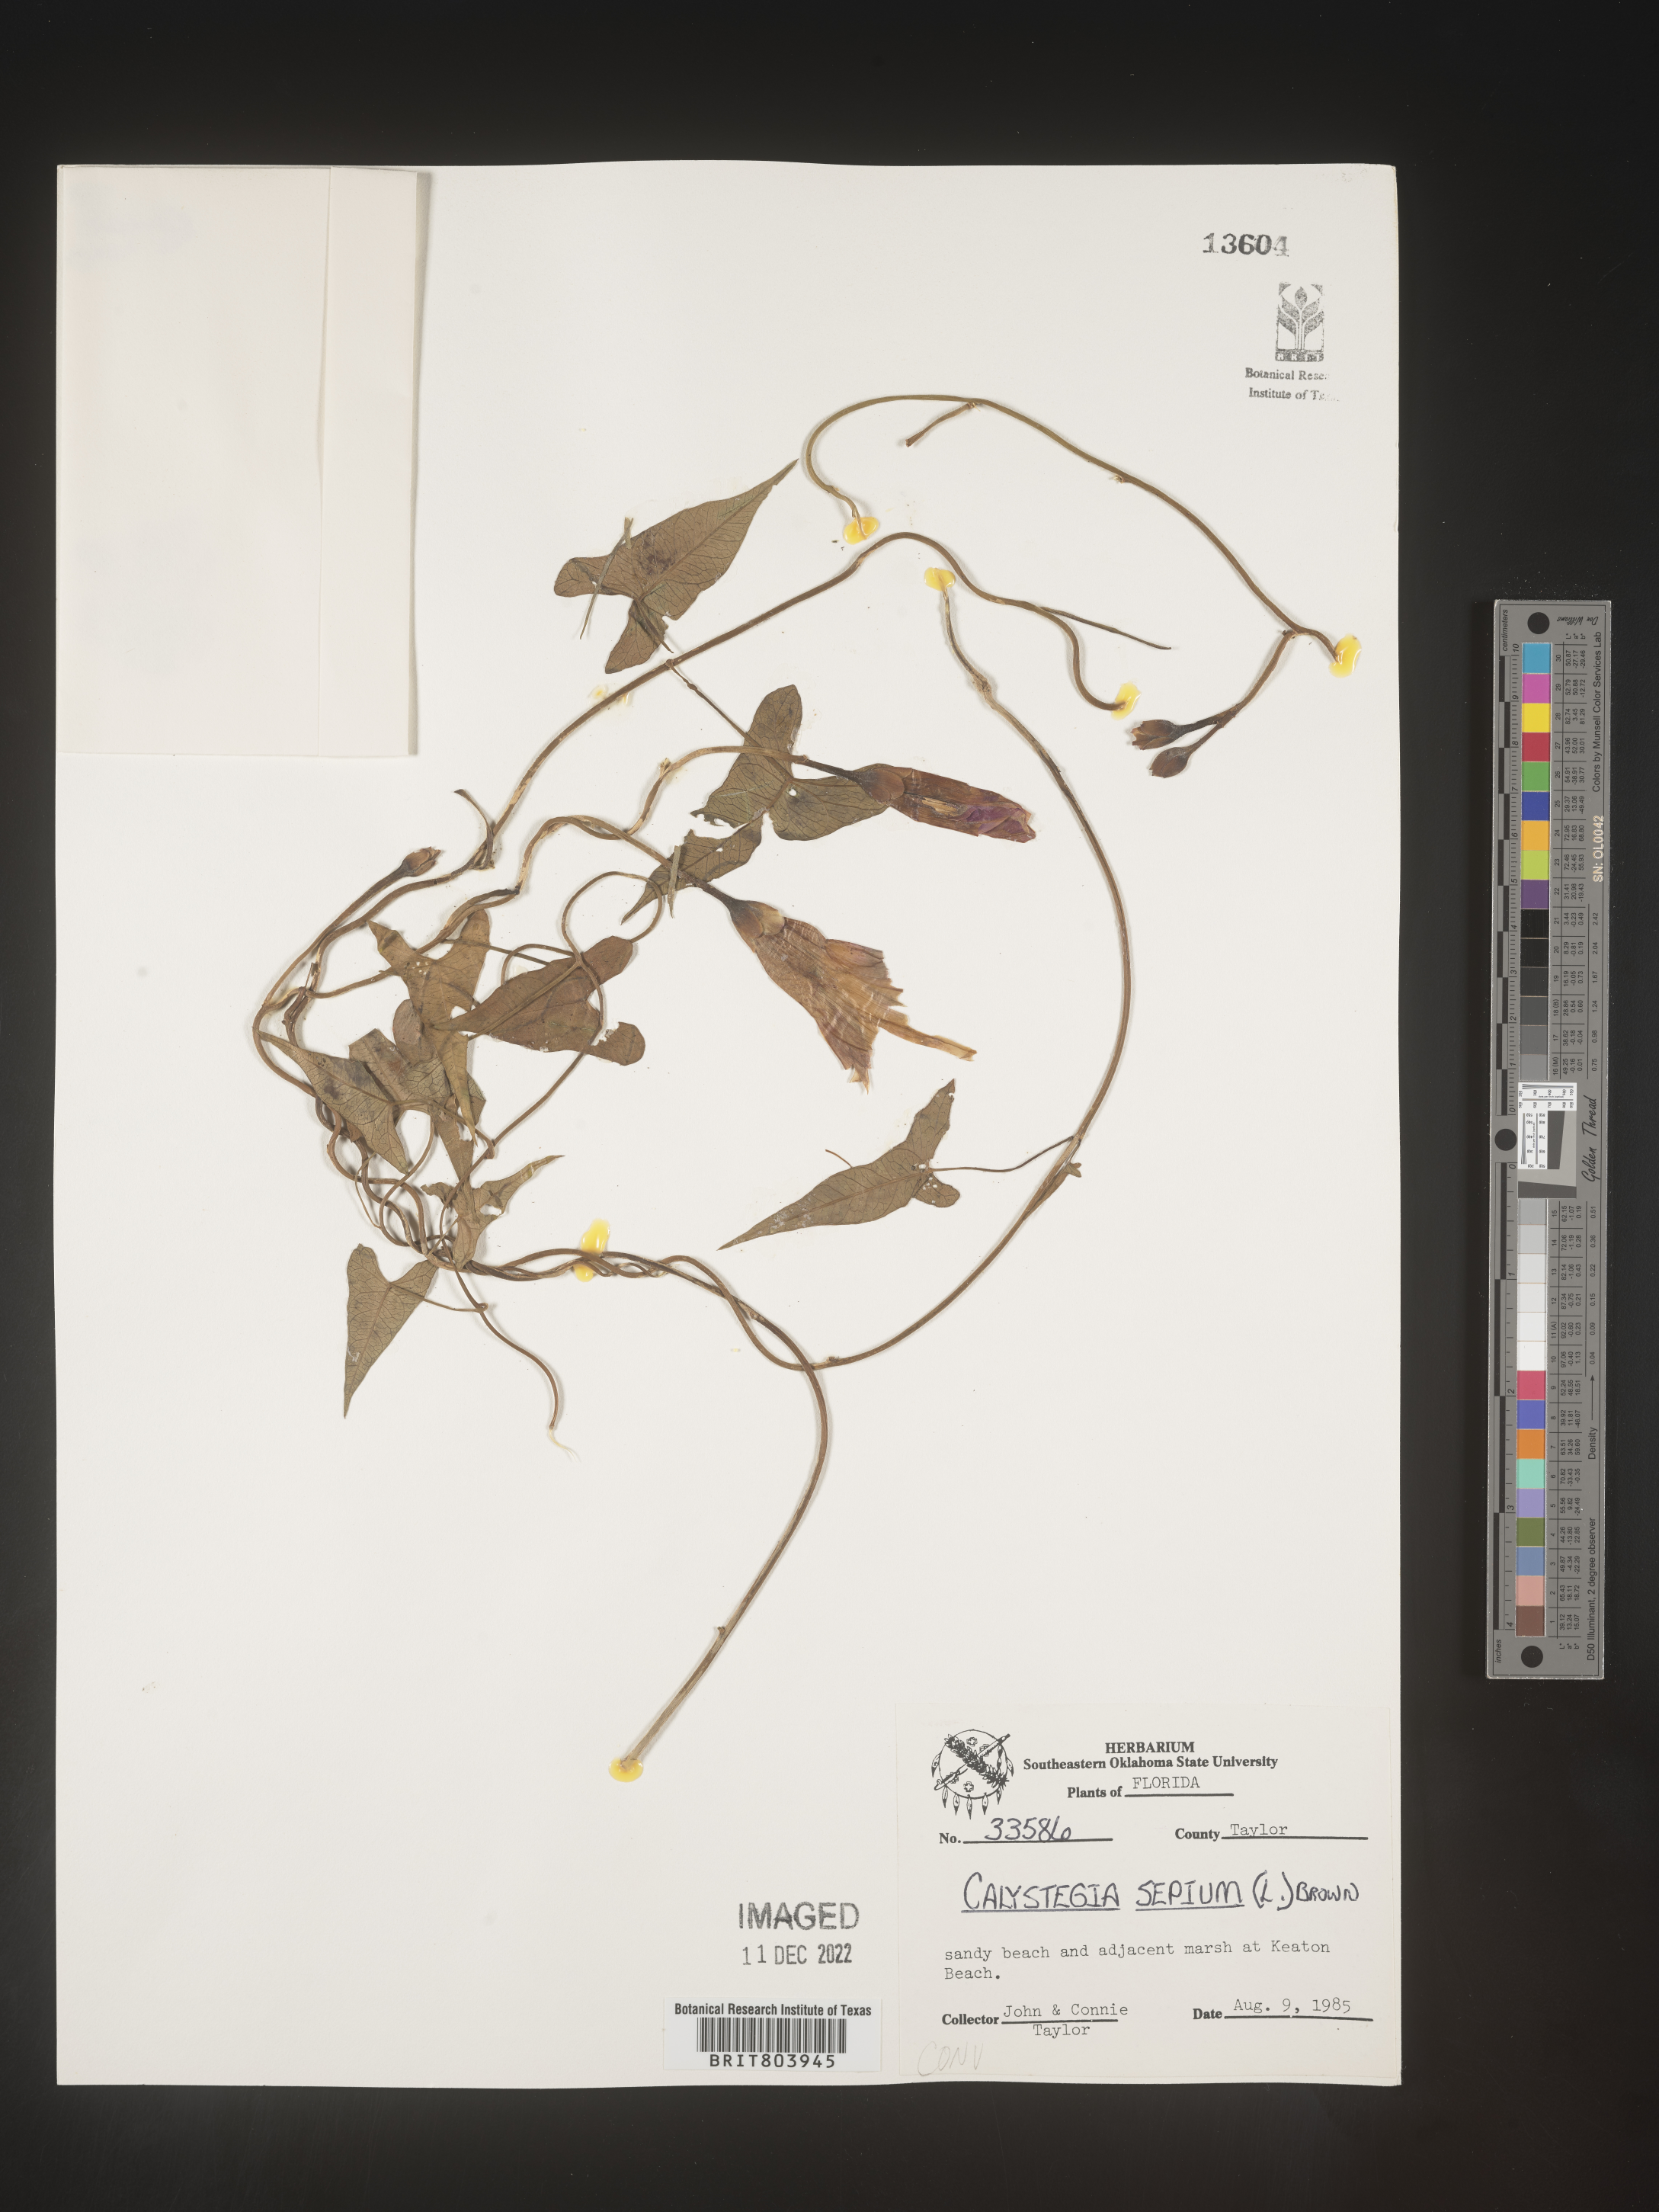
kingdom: Plantae
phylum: Tracheophyta
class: Magnoliopsida
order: Solanales
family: Convolvulaceae
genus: Calystegia
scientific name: Calystegia sepium
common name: Hedge bindweed
